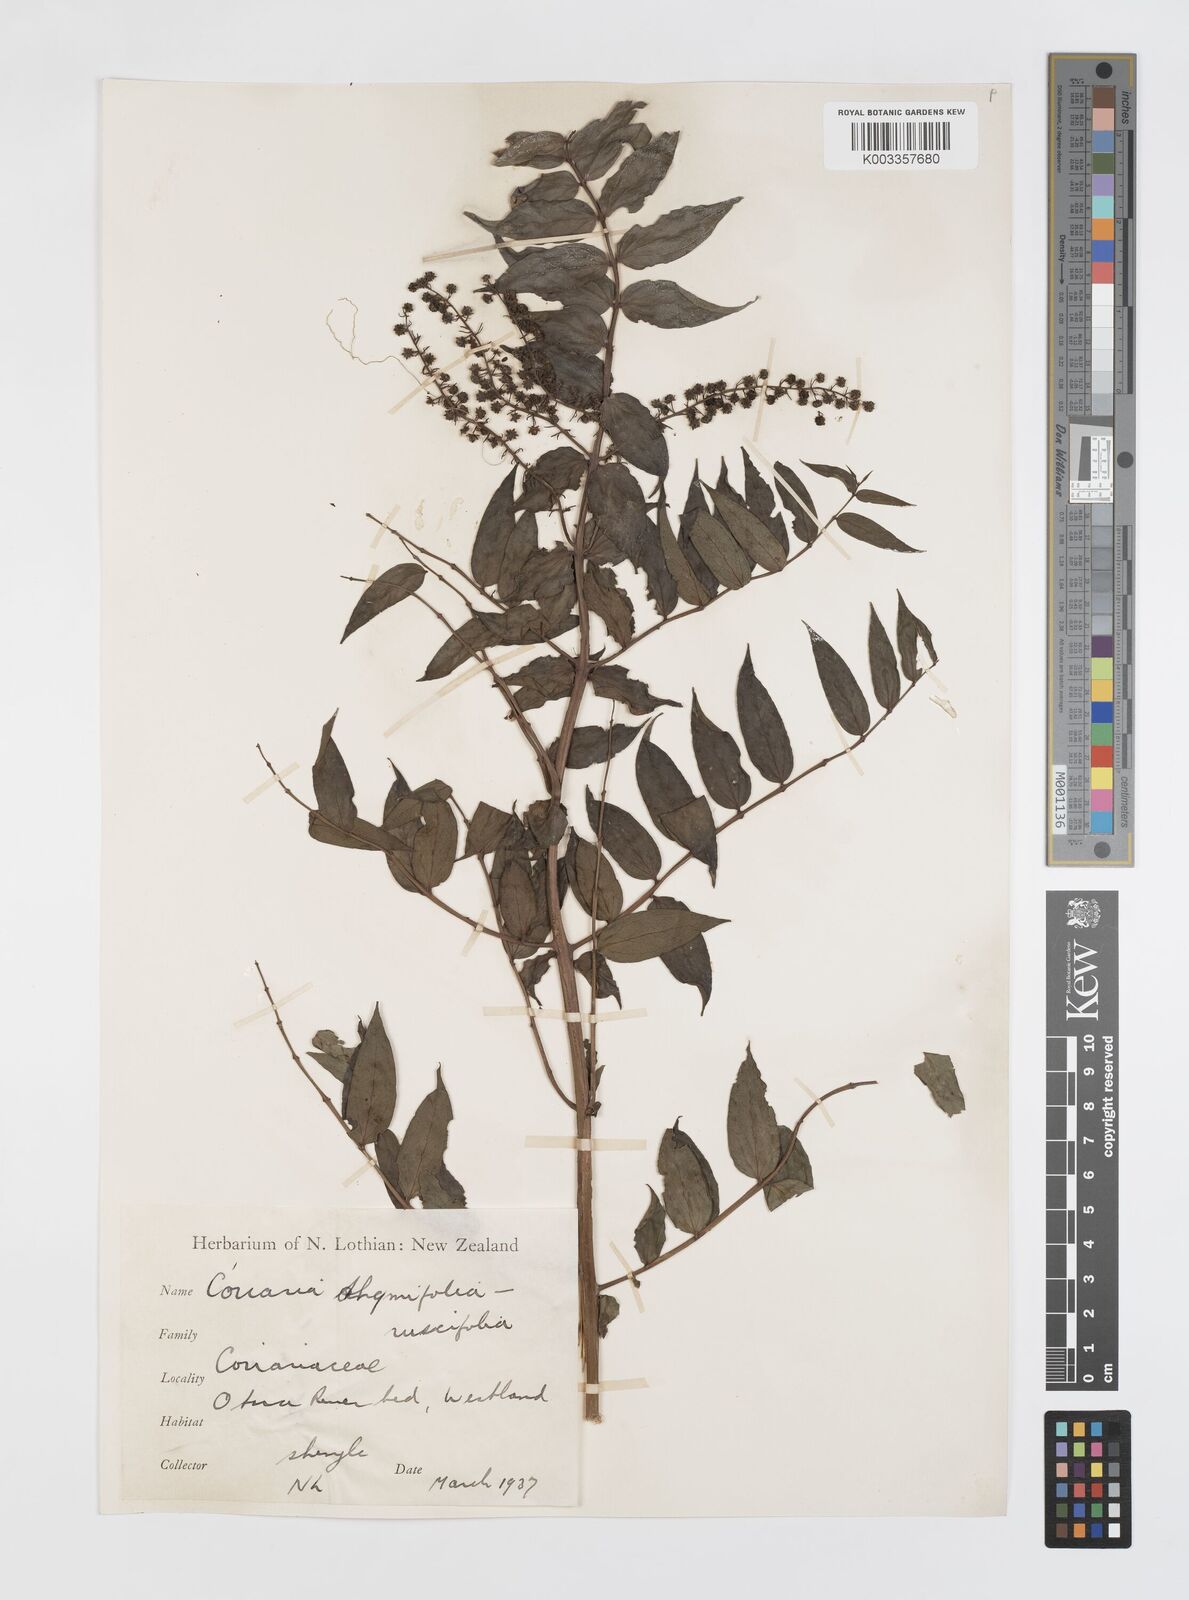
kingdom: Plantae
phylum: Tracheophyta
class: Magnoliopsida
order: Cucurbitales
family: Coriariaceae
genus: Coriaria
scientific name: Coriaria sarmentosa
